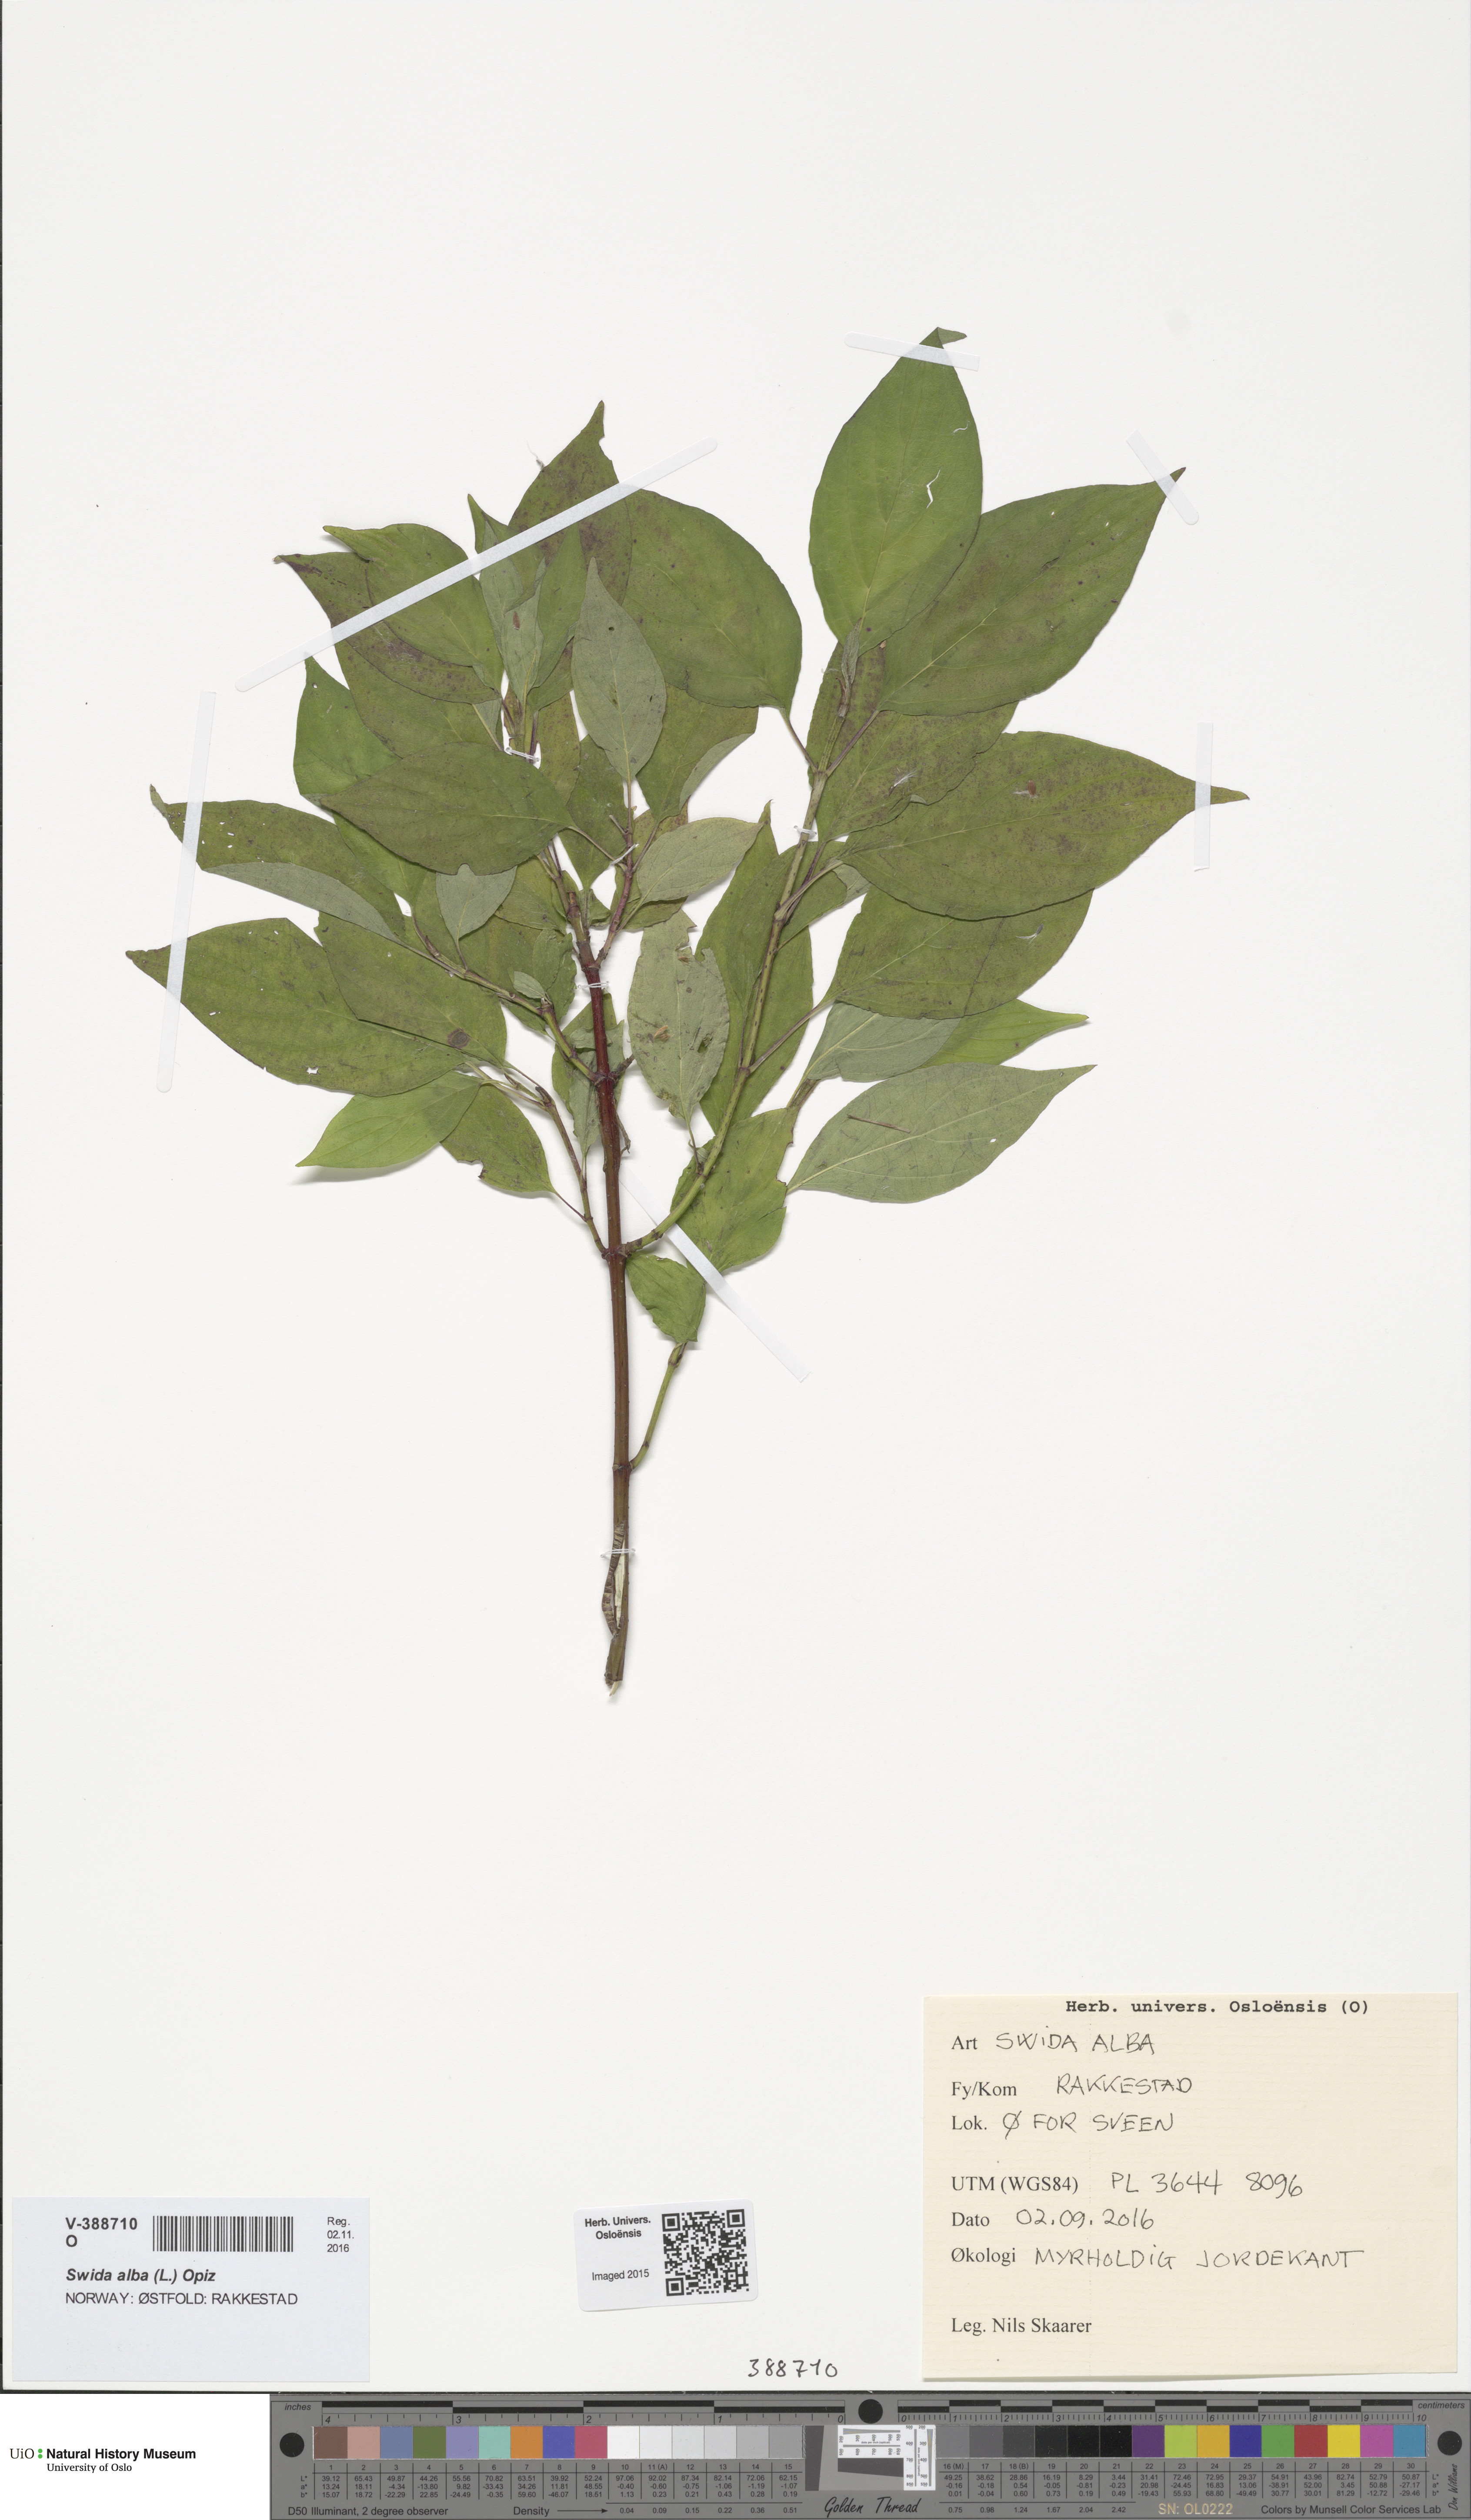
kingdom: Plantae
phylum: Tracheophyta
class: Magnoliopsida
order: Cornales
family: Cornaceae
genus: Cornus
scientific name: Cornus alba
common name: White dogwood
